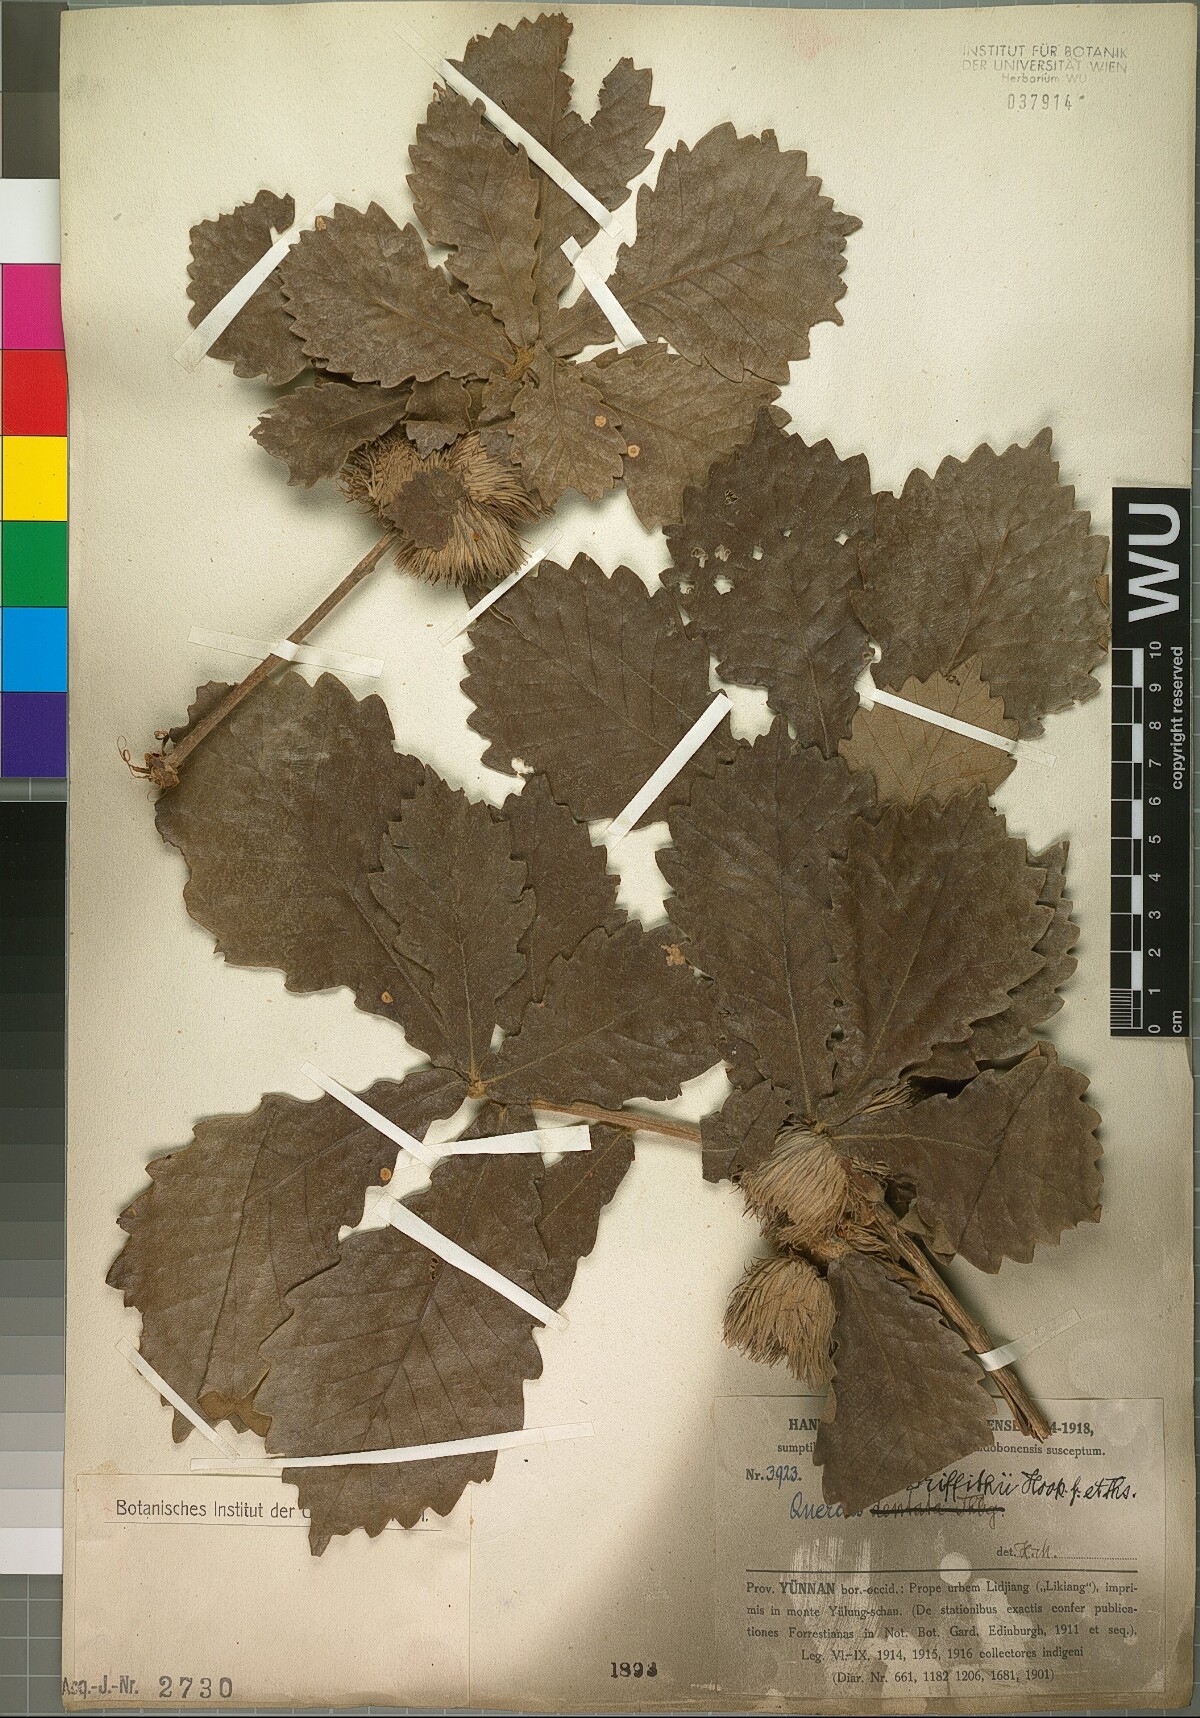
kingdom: Plantae
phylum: Tracheophyta
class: Magnoliopsida
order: Fagales
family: Fagaceae
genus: Quercus
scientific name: Quercus griffithii
